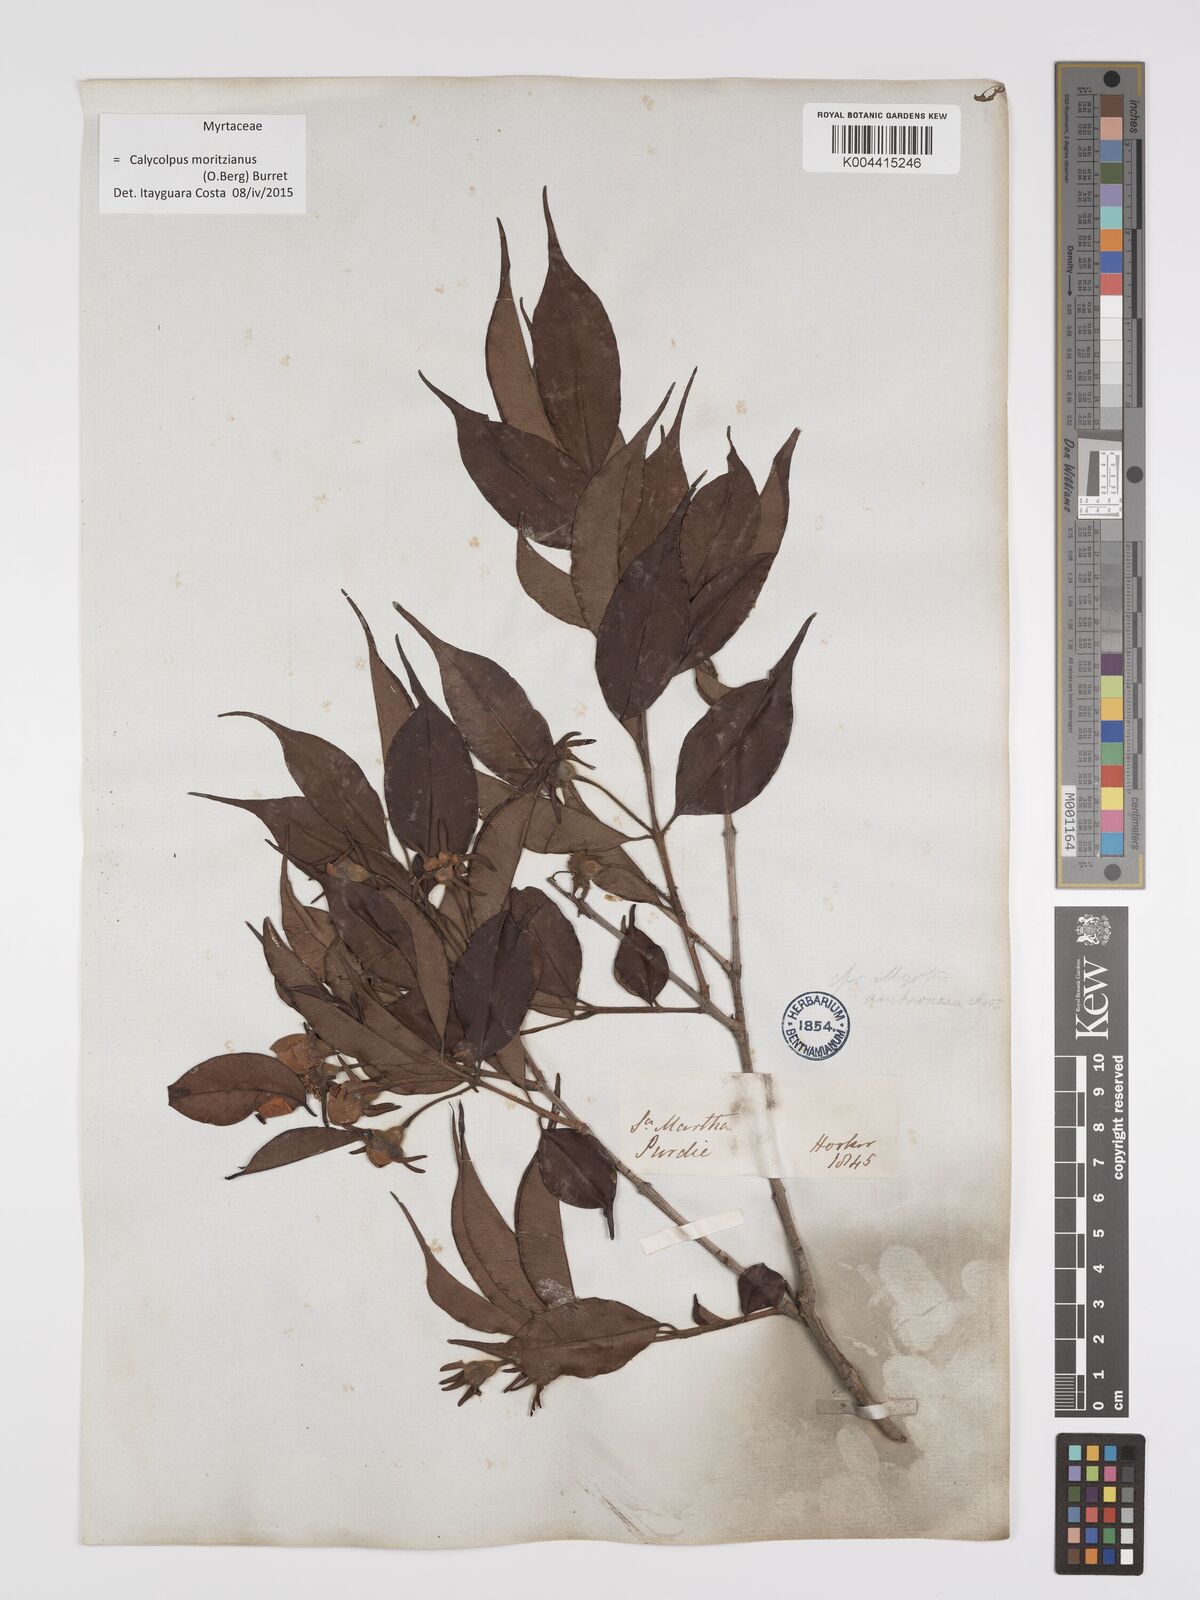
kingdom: Plantae
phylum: Tracheophyta
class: Magnoliopsida
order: Myrtales
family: Myrtaceae
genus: Calycolpus
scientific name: Calycolpus moritzianus
